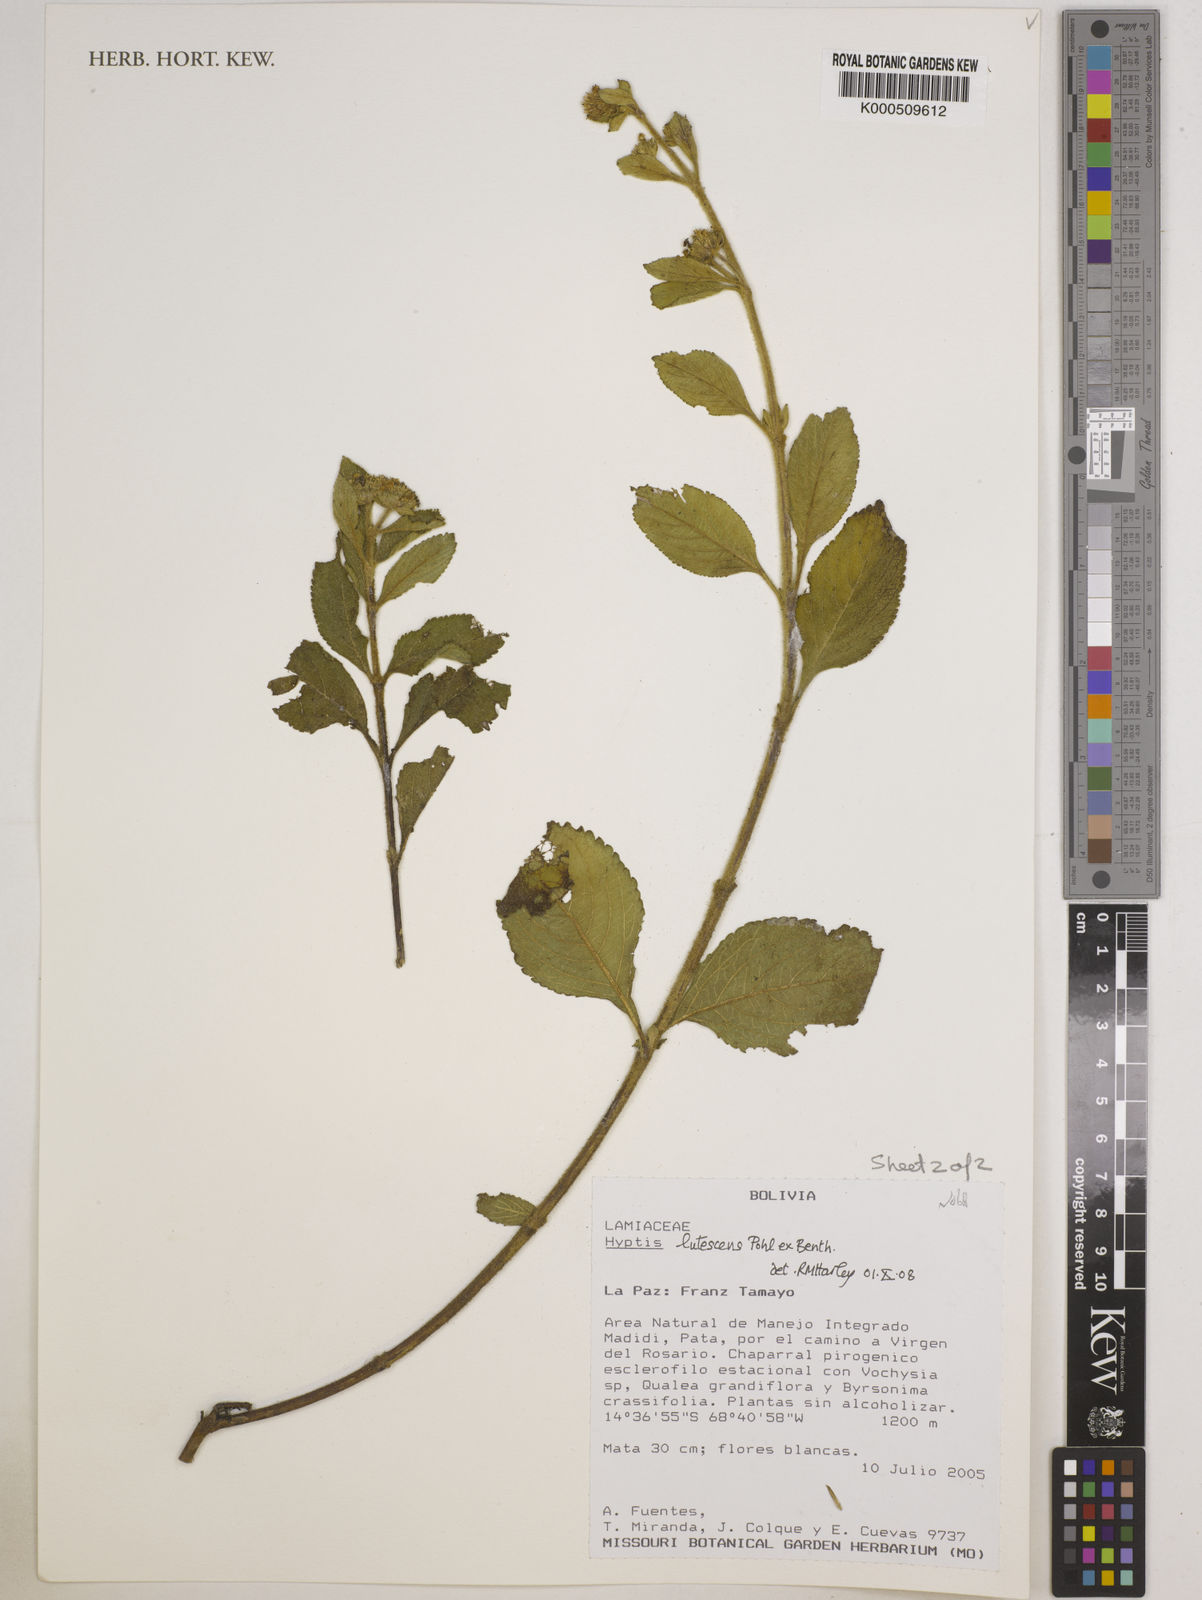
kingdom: Plantae
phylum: Tracheophyta
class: Magnoliopsida
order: Lamiales
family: Lamiaceae
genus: Hyptis
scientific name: Hyptis lutescens
